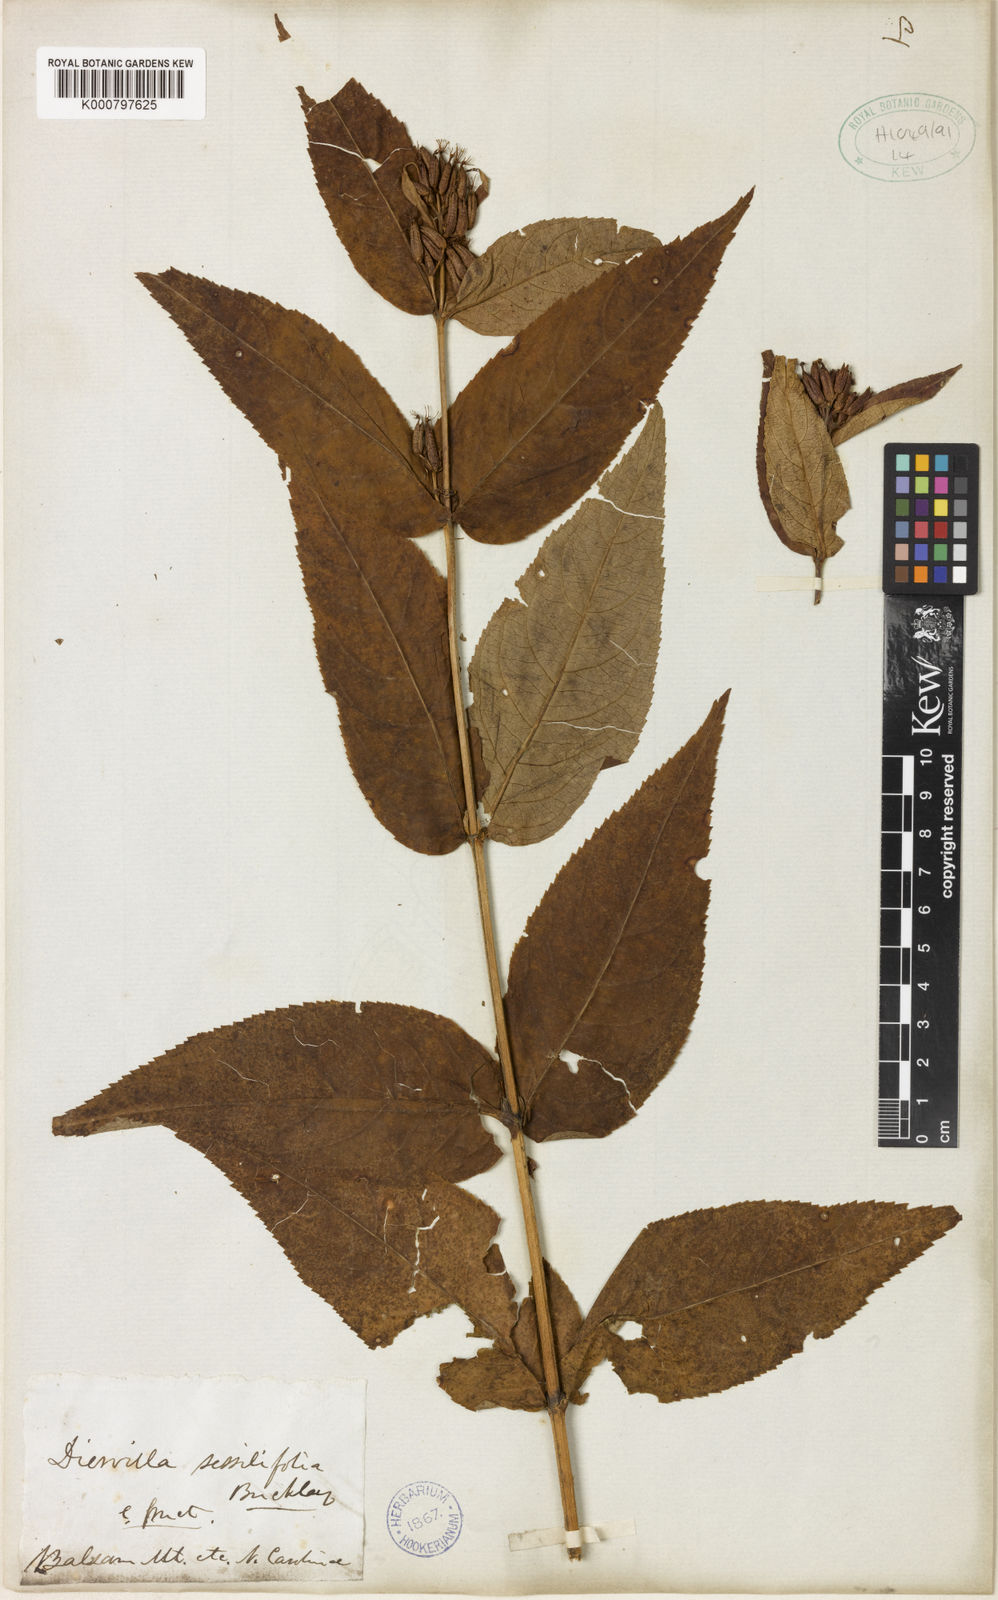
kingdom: Plantae
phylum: Tracheophyta
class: Magnoliopsida
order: Dipsacales
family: Caprifoliaceae
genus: Diervilla
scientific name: Diervilla sessilifolia
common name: Bush-honeysuckle
